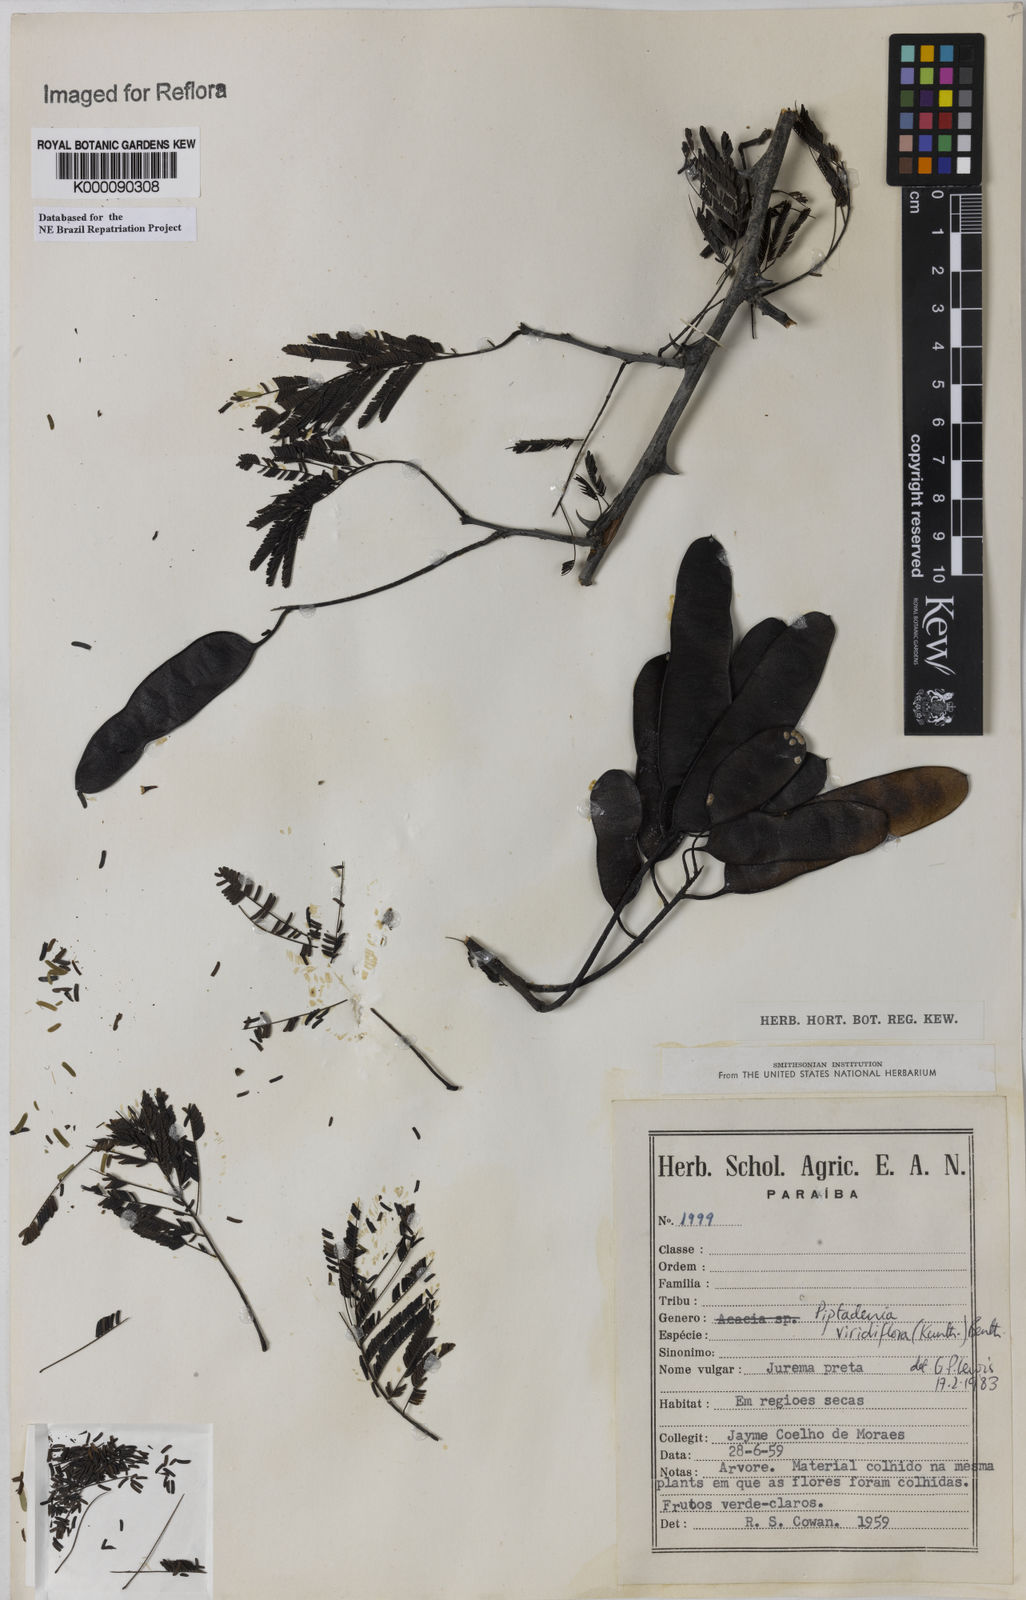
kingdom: Plantae
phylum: Tracheophyta
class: Magnoliopsida
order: Fabales
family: Fabaceae
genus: Lachesiodendron
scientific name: Lachesiodendron viridiflorum
